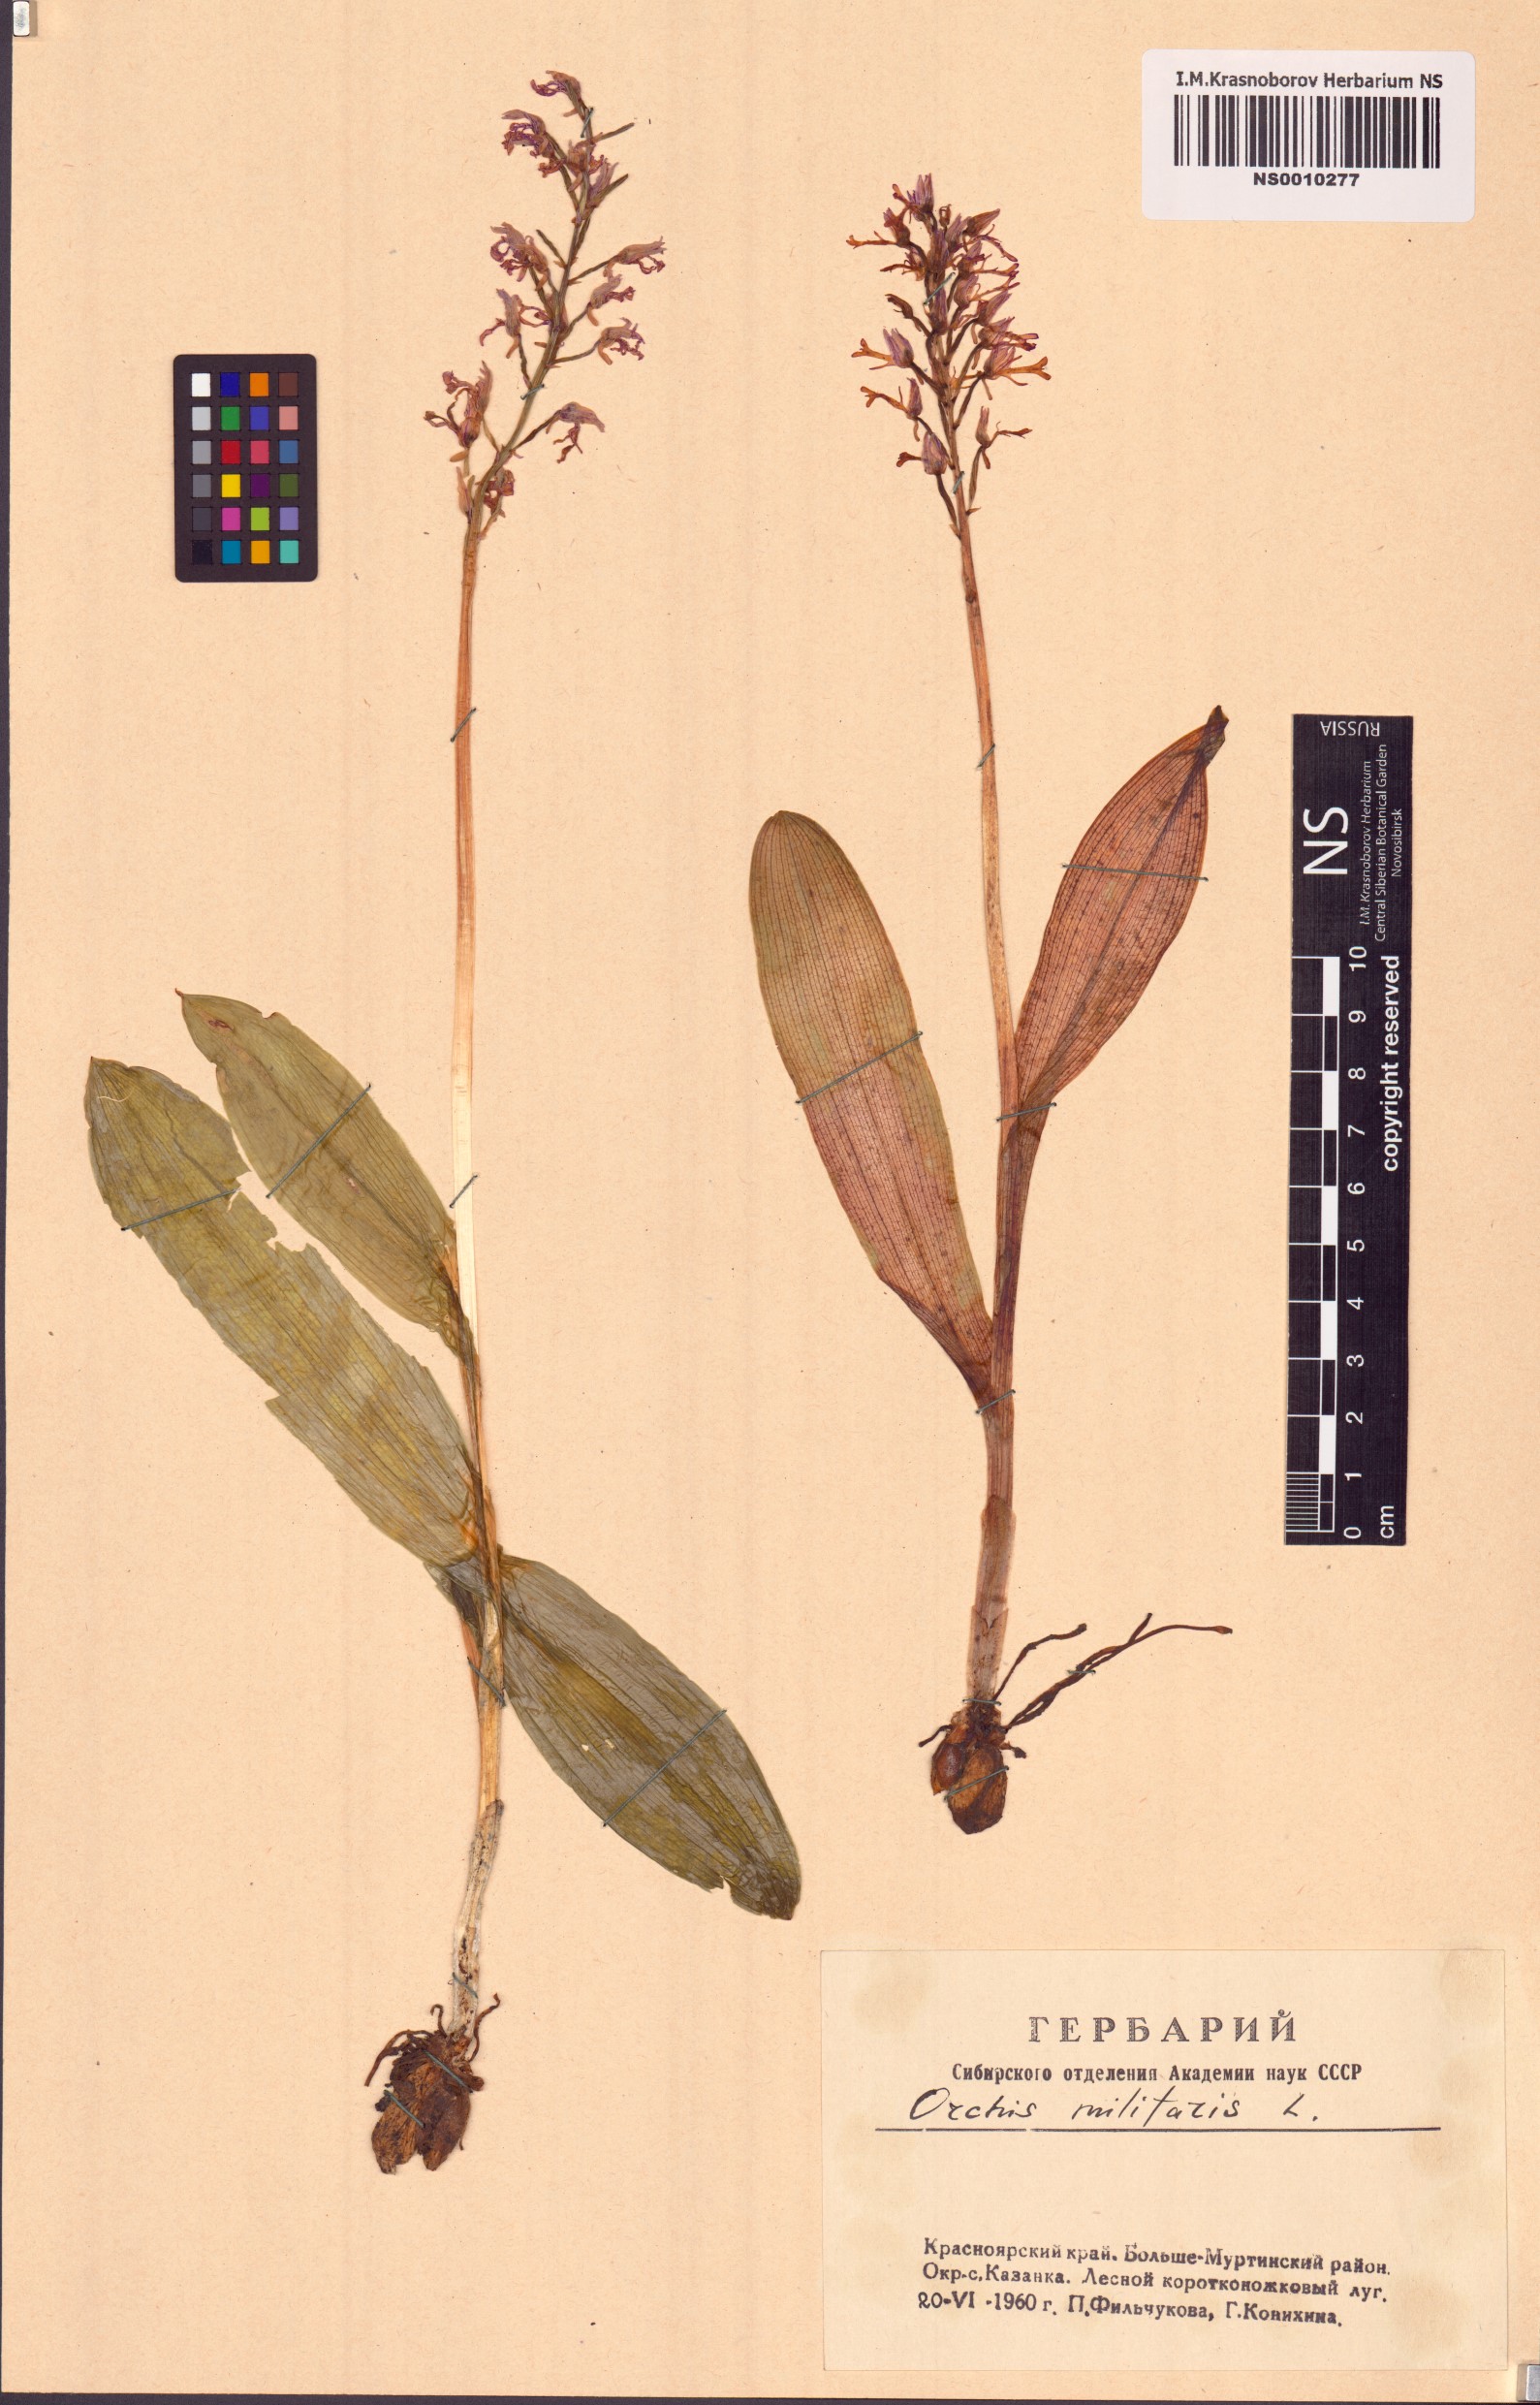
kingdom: Plantae
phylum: Tracheophyta
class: Liliopsida
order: Asparagales
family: Orchidaceae
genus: Orchis
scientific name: Orchis militaris
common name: Military orchid
